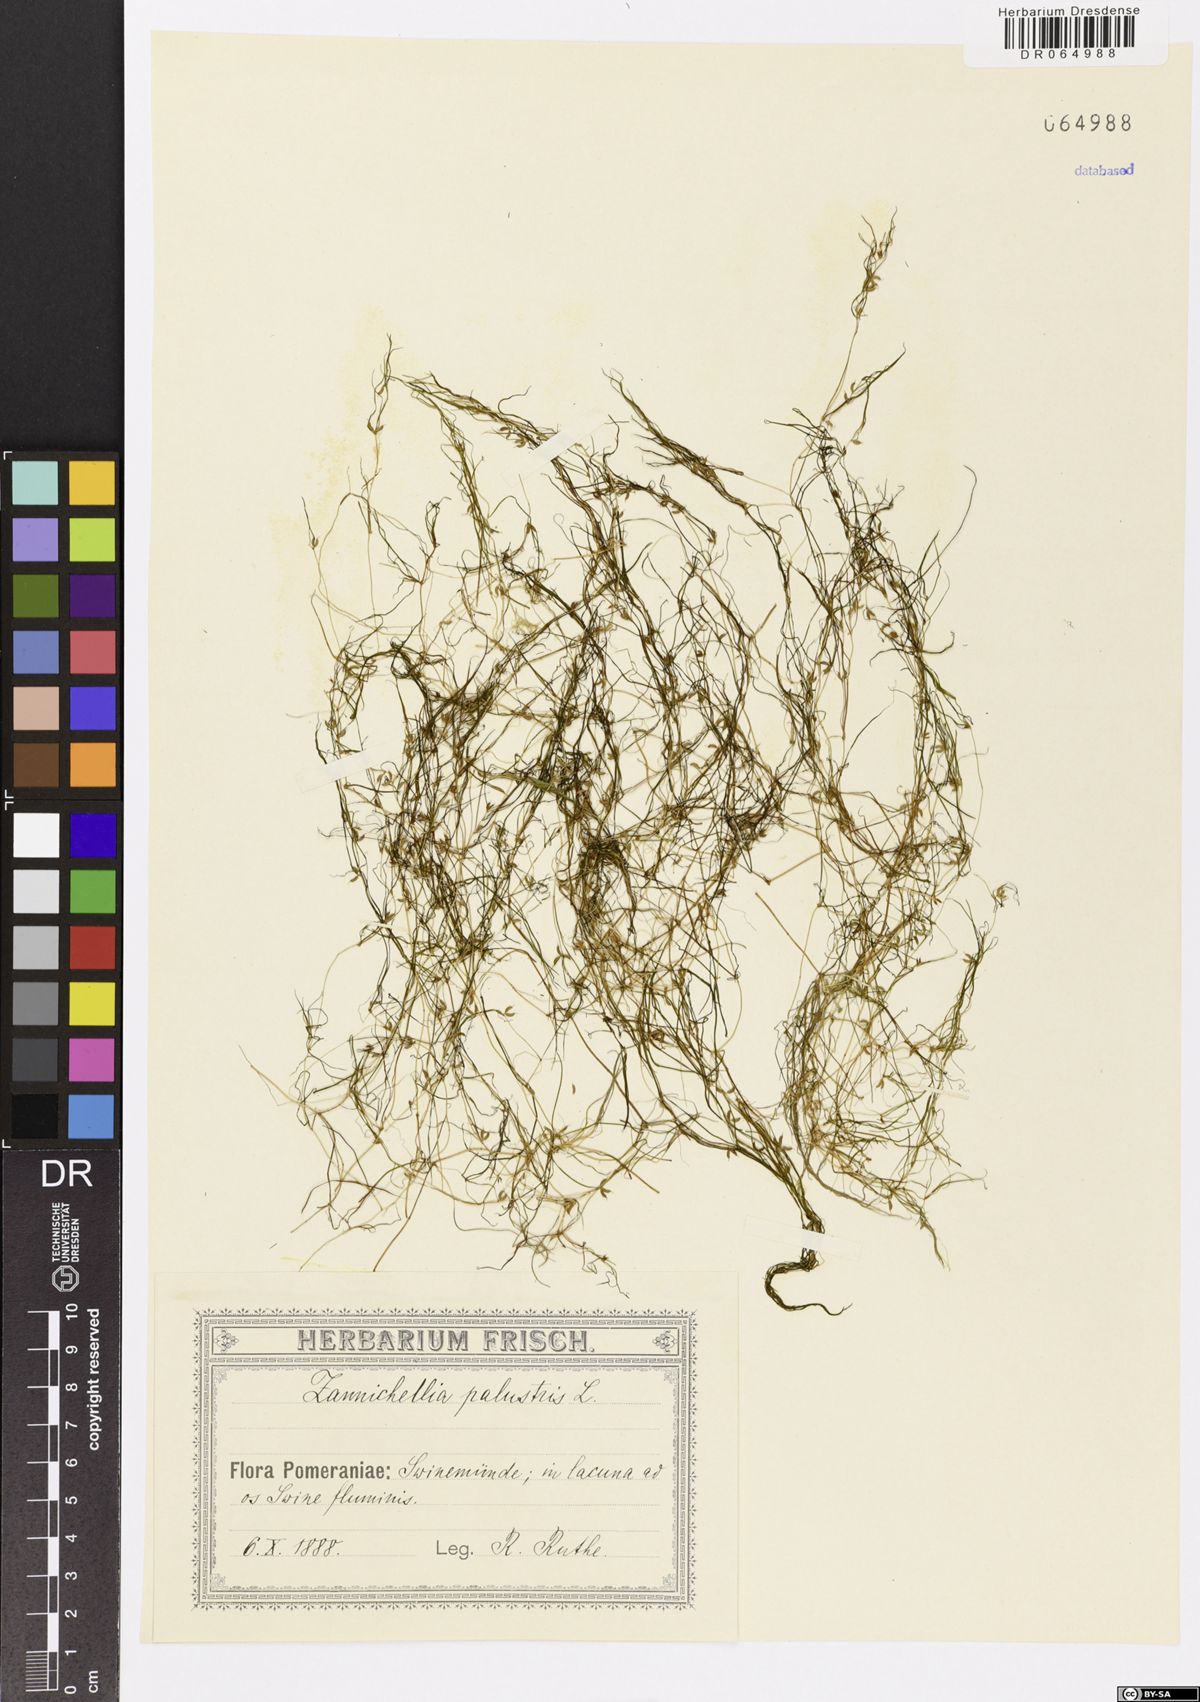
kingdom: Plantae
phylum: Tracheophyta
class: Liliopsida
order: Alismatales
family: Potamogetonaceae
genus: Zannichellia
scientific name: Zannichellia palustris
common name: Horned pondweed
